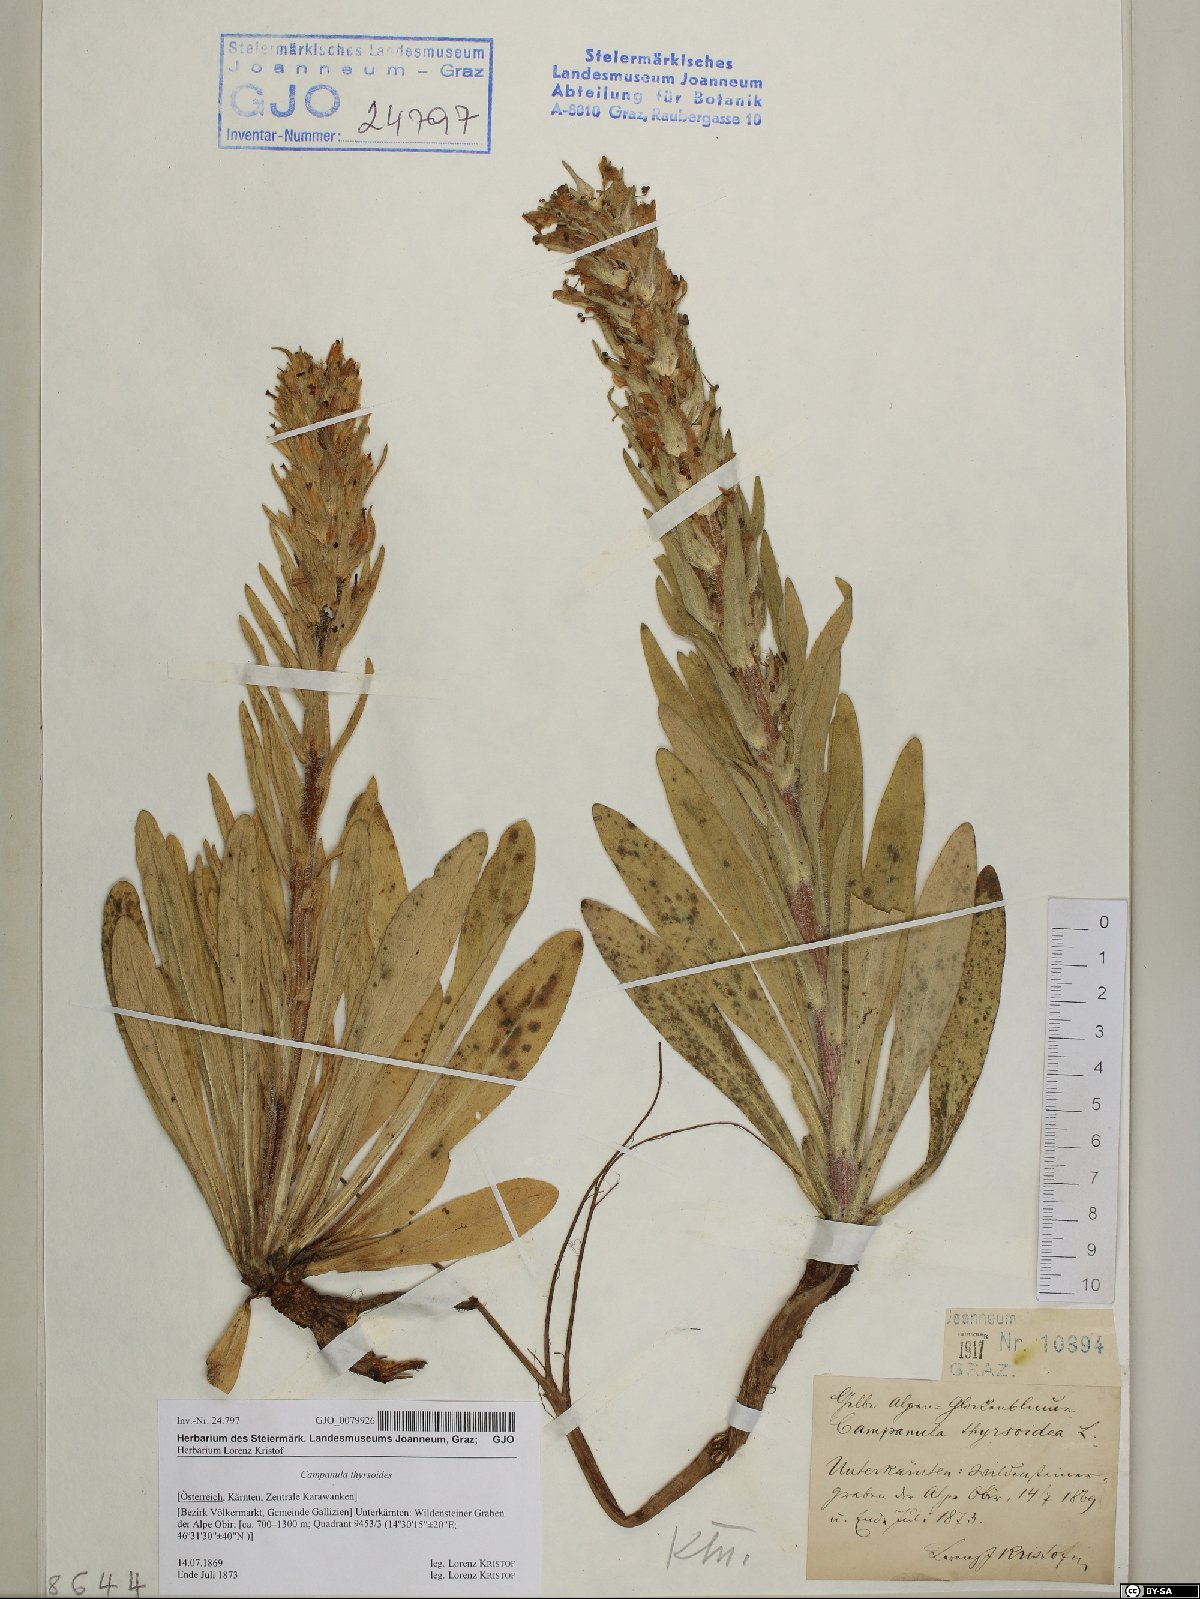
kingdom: Plantae
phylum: Tracheophyta
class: Magnoliopsida
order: Asterales
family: Campanulaceae
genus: Campanula
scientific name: Campanula thyrsoides
